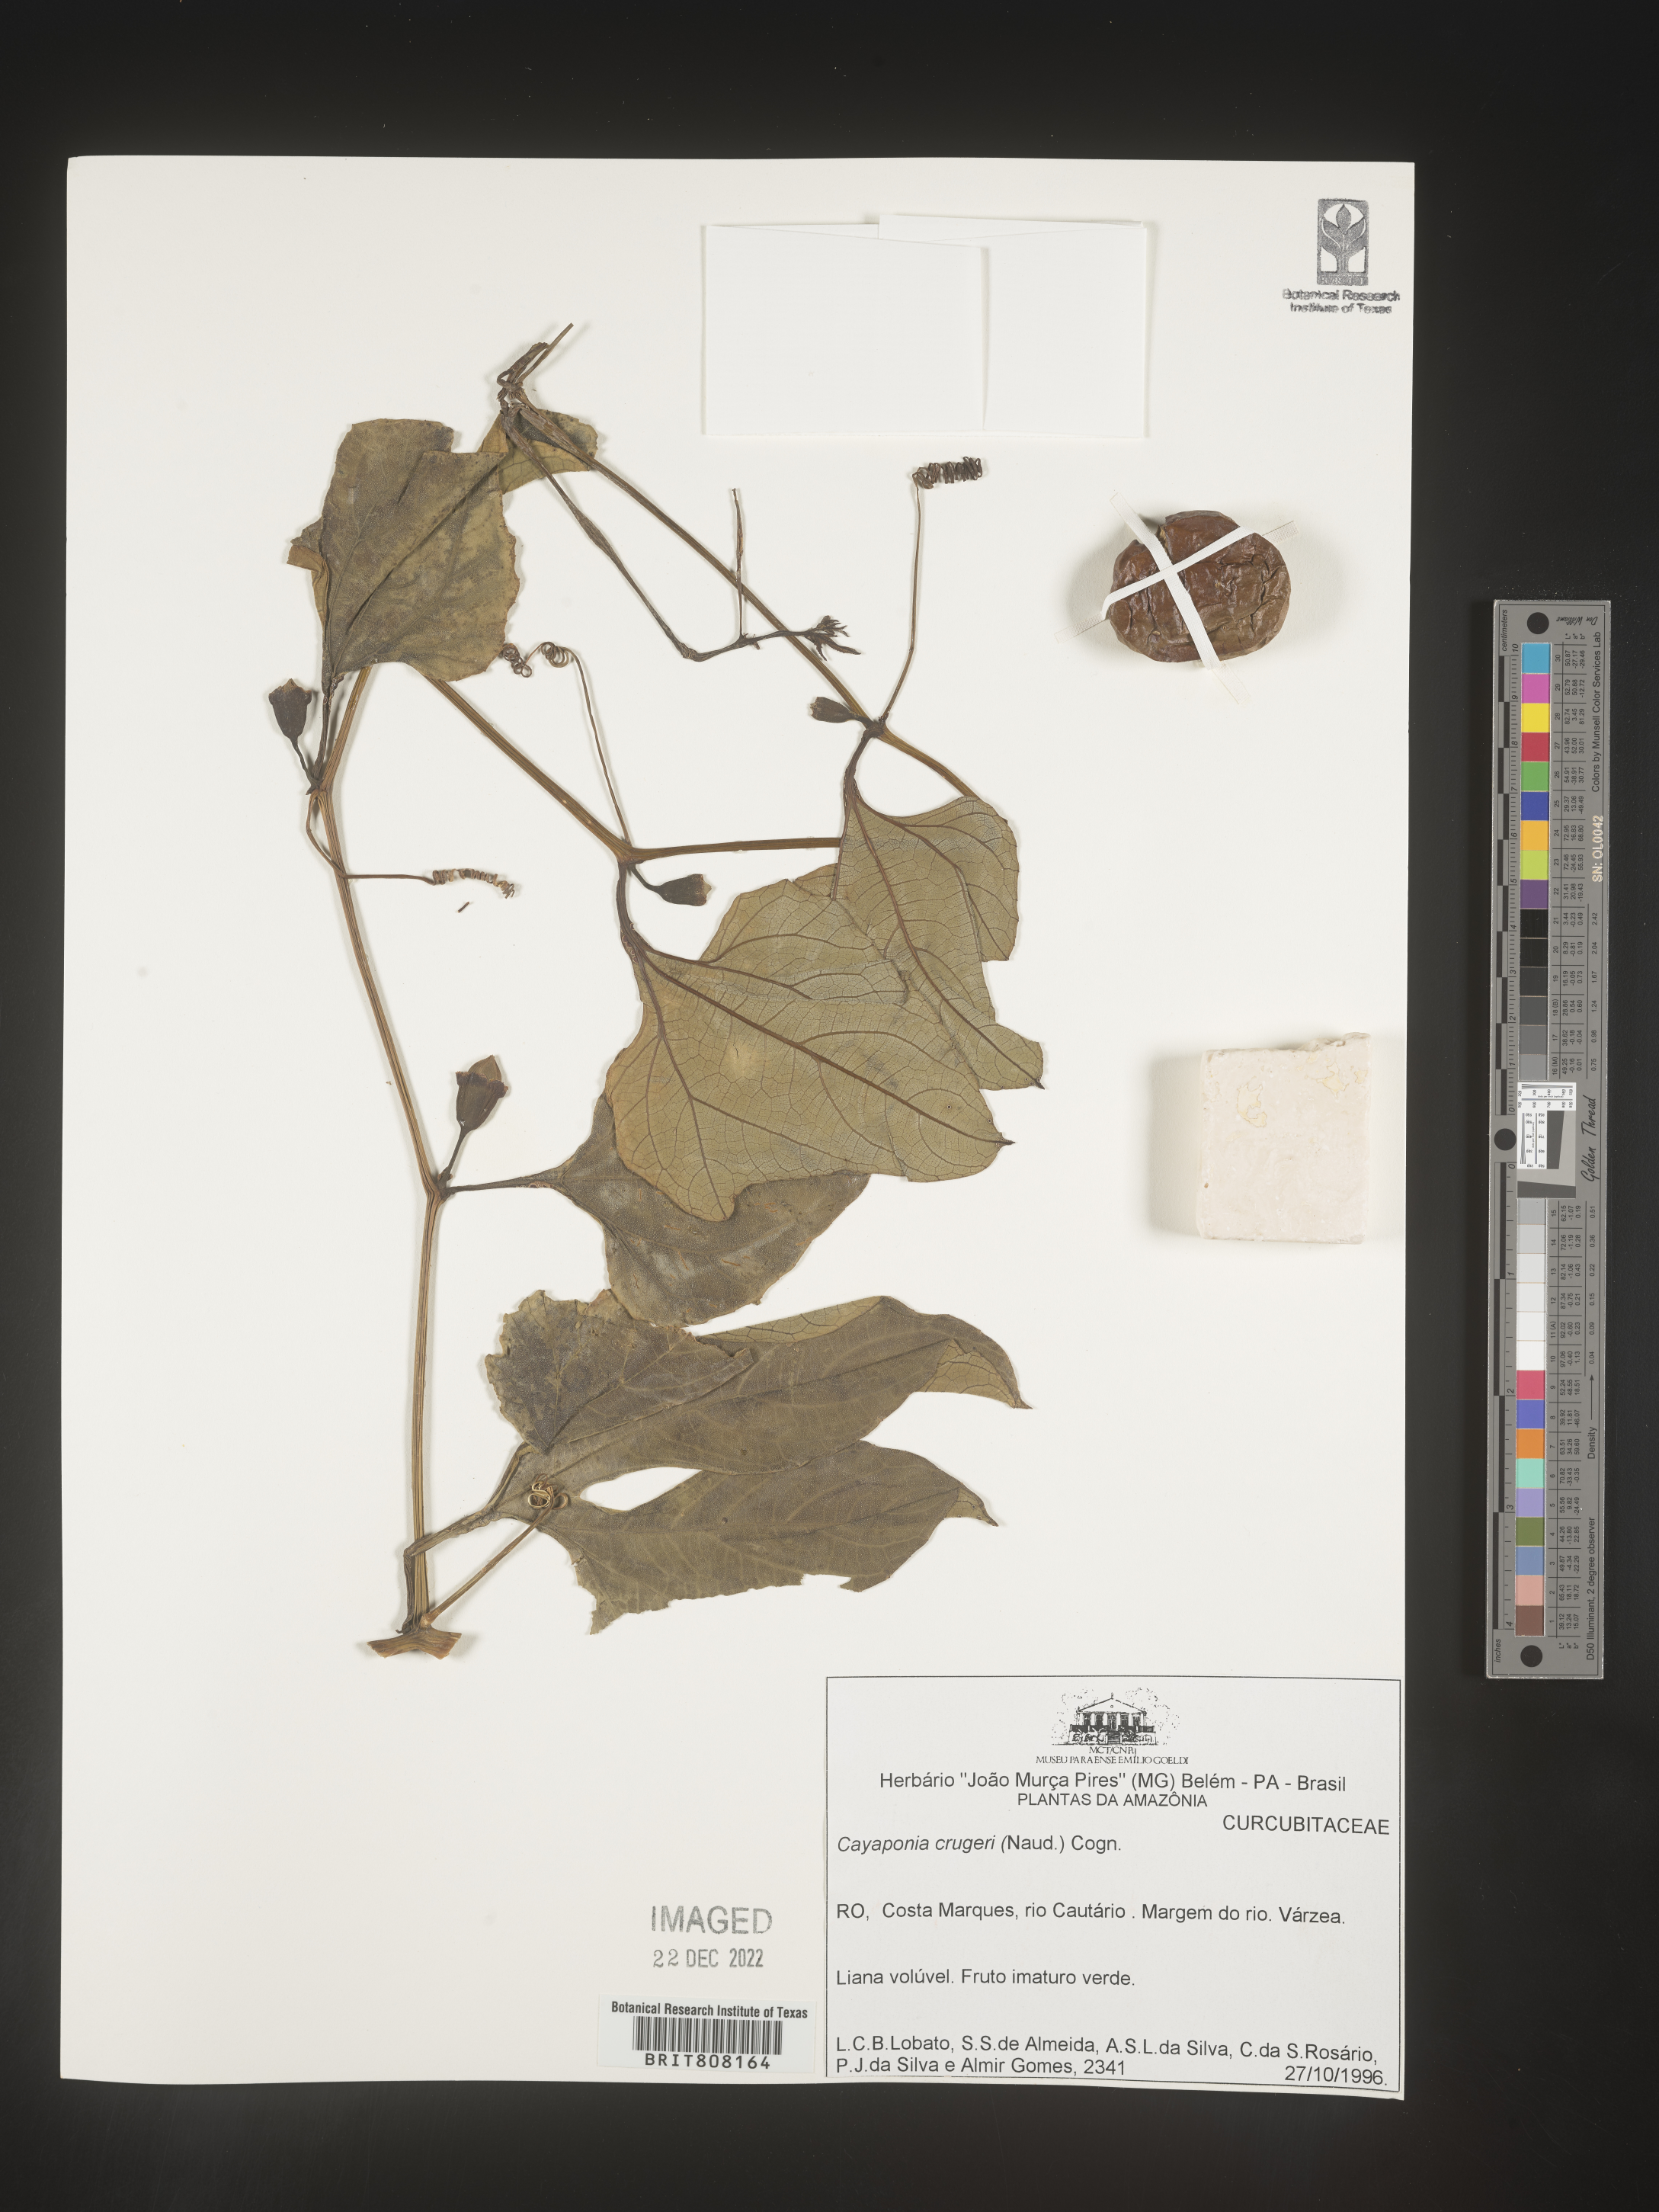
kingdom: Plantae
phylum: Tracheophyta
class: Magnoliopsida
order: Cucurbitales
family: Cucurbitaceae
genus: Cayaponia
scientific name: Cayaponia
